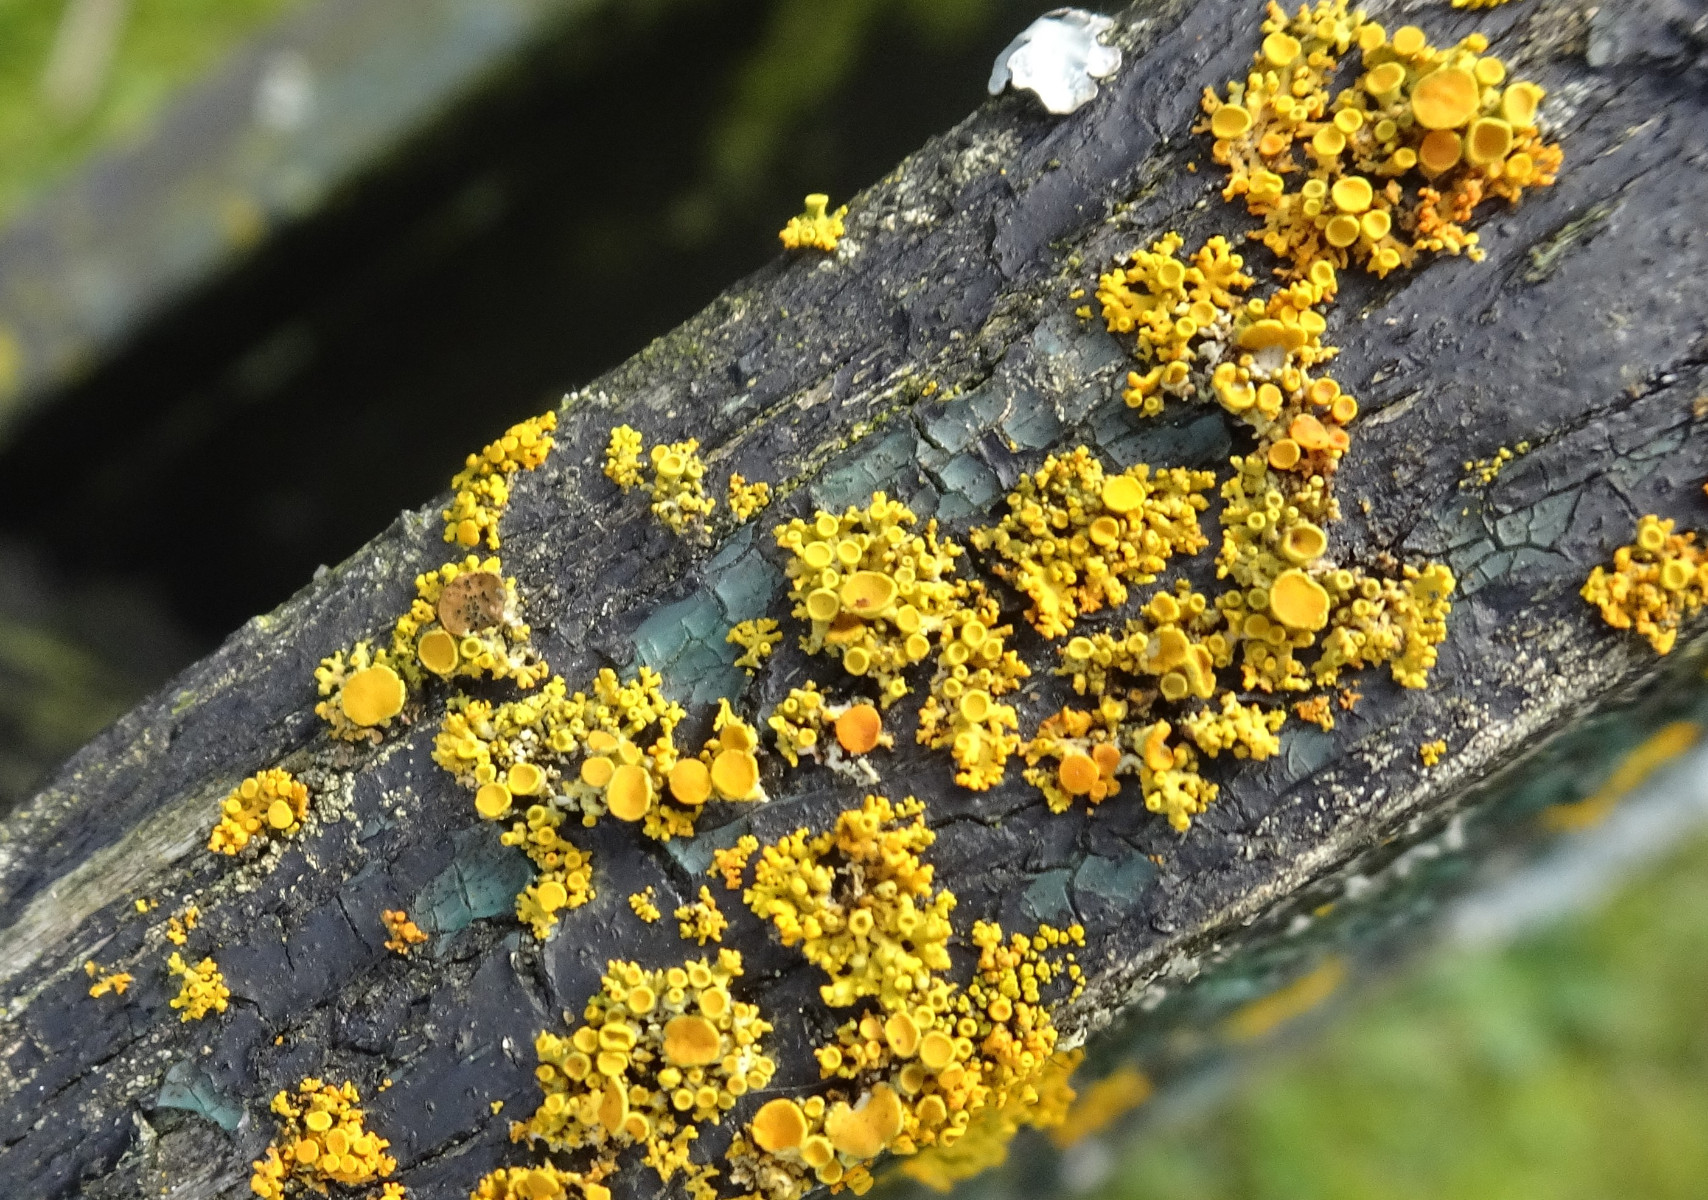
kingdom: Fungi
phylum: Ascomycota
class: Lecanoromycetes
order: Teloschistales
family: Teloschistaceae
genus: Polycauliona
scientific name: Polycauliona polycarpa
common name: mangefrugtet orangelav
